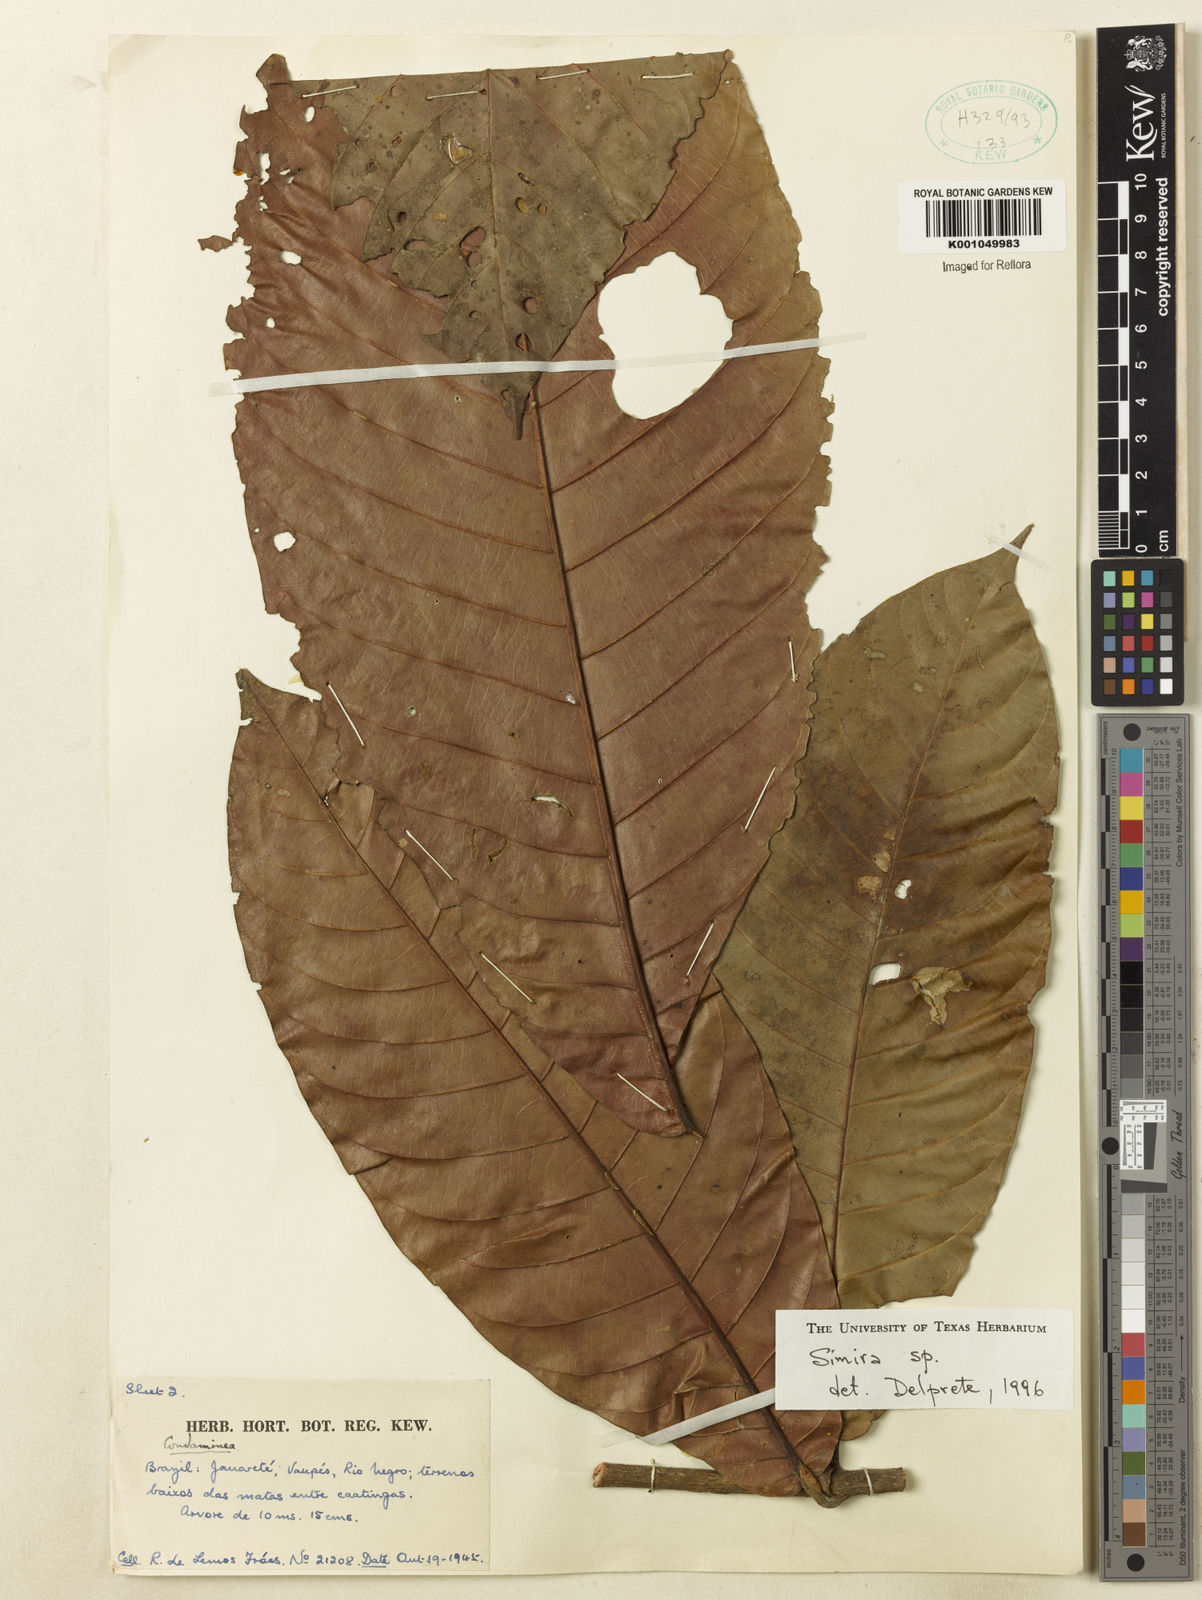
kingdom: Plantae
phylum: Tracheophyta
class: Magnoliopsida
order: Gentianales
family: Rubiaceae
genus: Simira
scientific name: Simira
